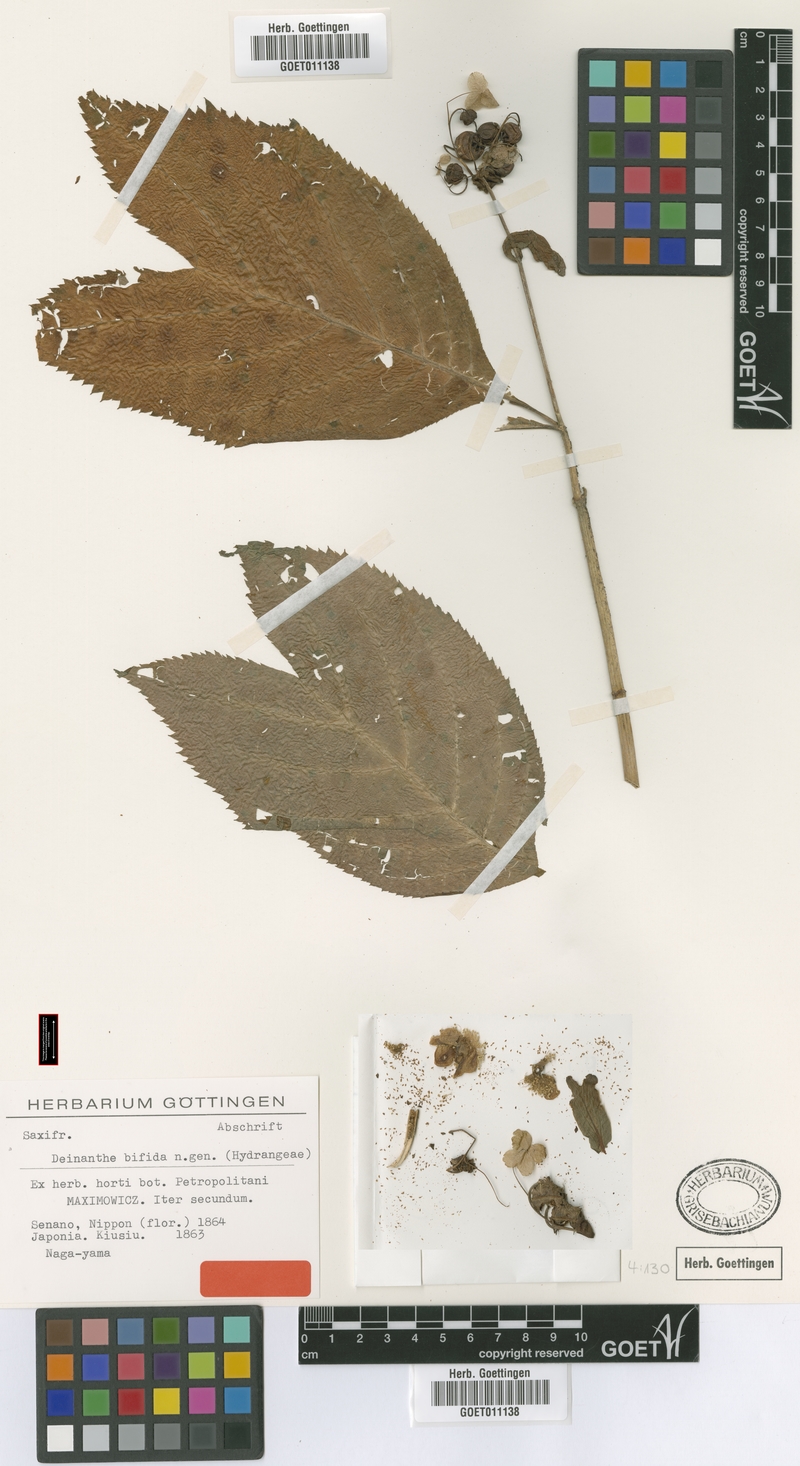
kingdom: Plantae
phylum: Tracheophyta
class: Magnoliopsida
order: Cornales
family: Hydrangeaceae
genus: Hydrangea
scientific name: Hydrangea bifida
